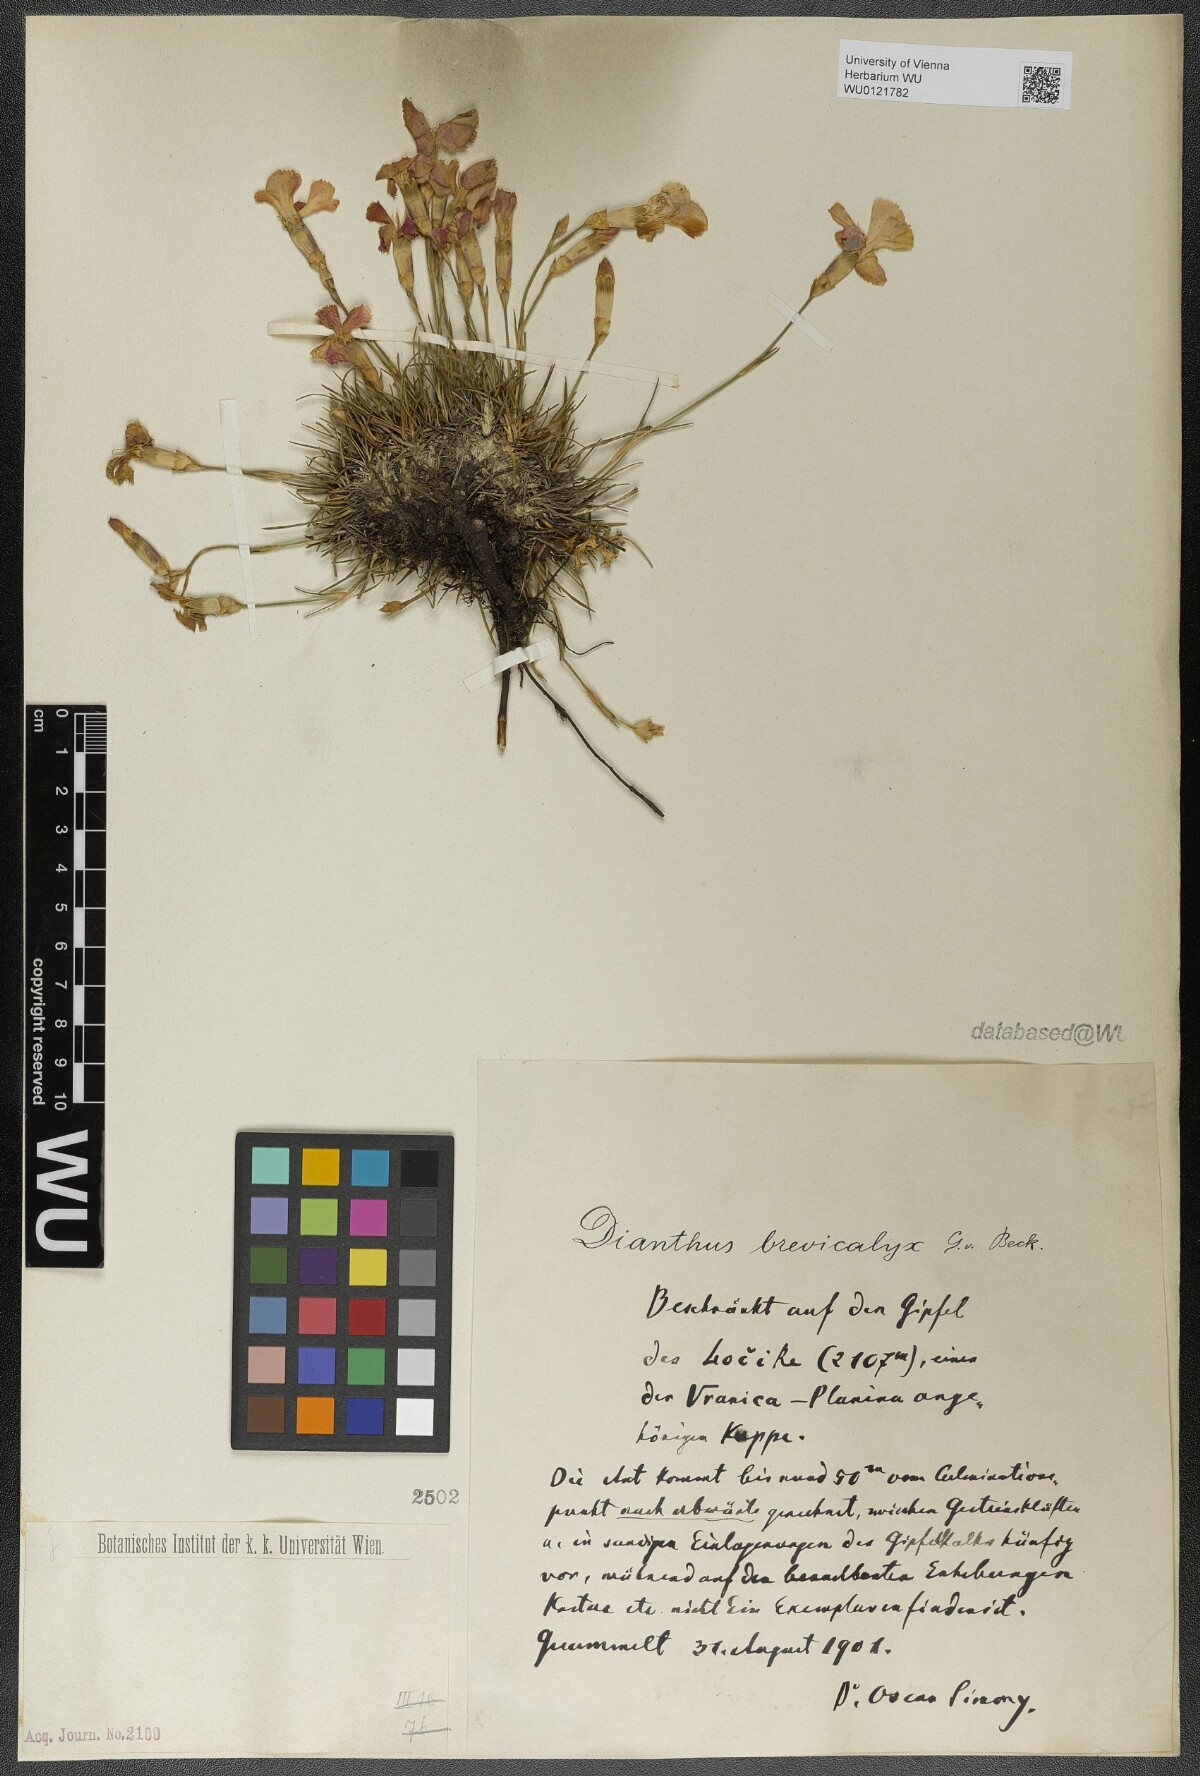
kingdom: Plantae
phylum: Tracheophyta
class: Magnoliopsida
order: Caryophyllales
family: Caryophyllaceae
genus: Dianthus
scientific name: Dianthus sylvestris
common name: Wood pink
